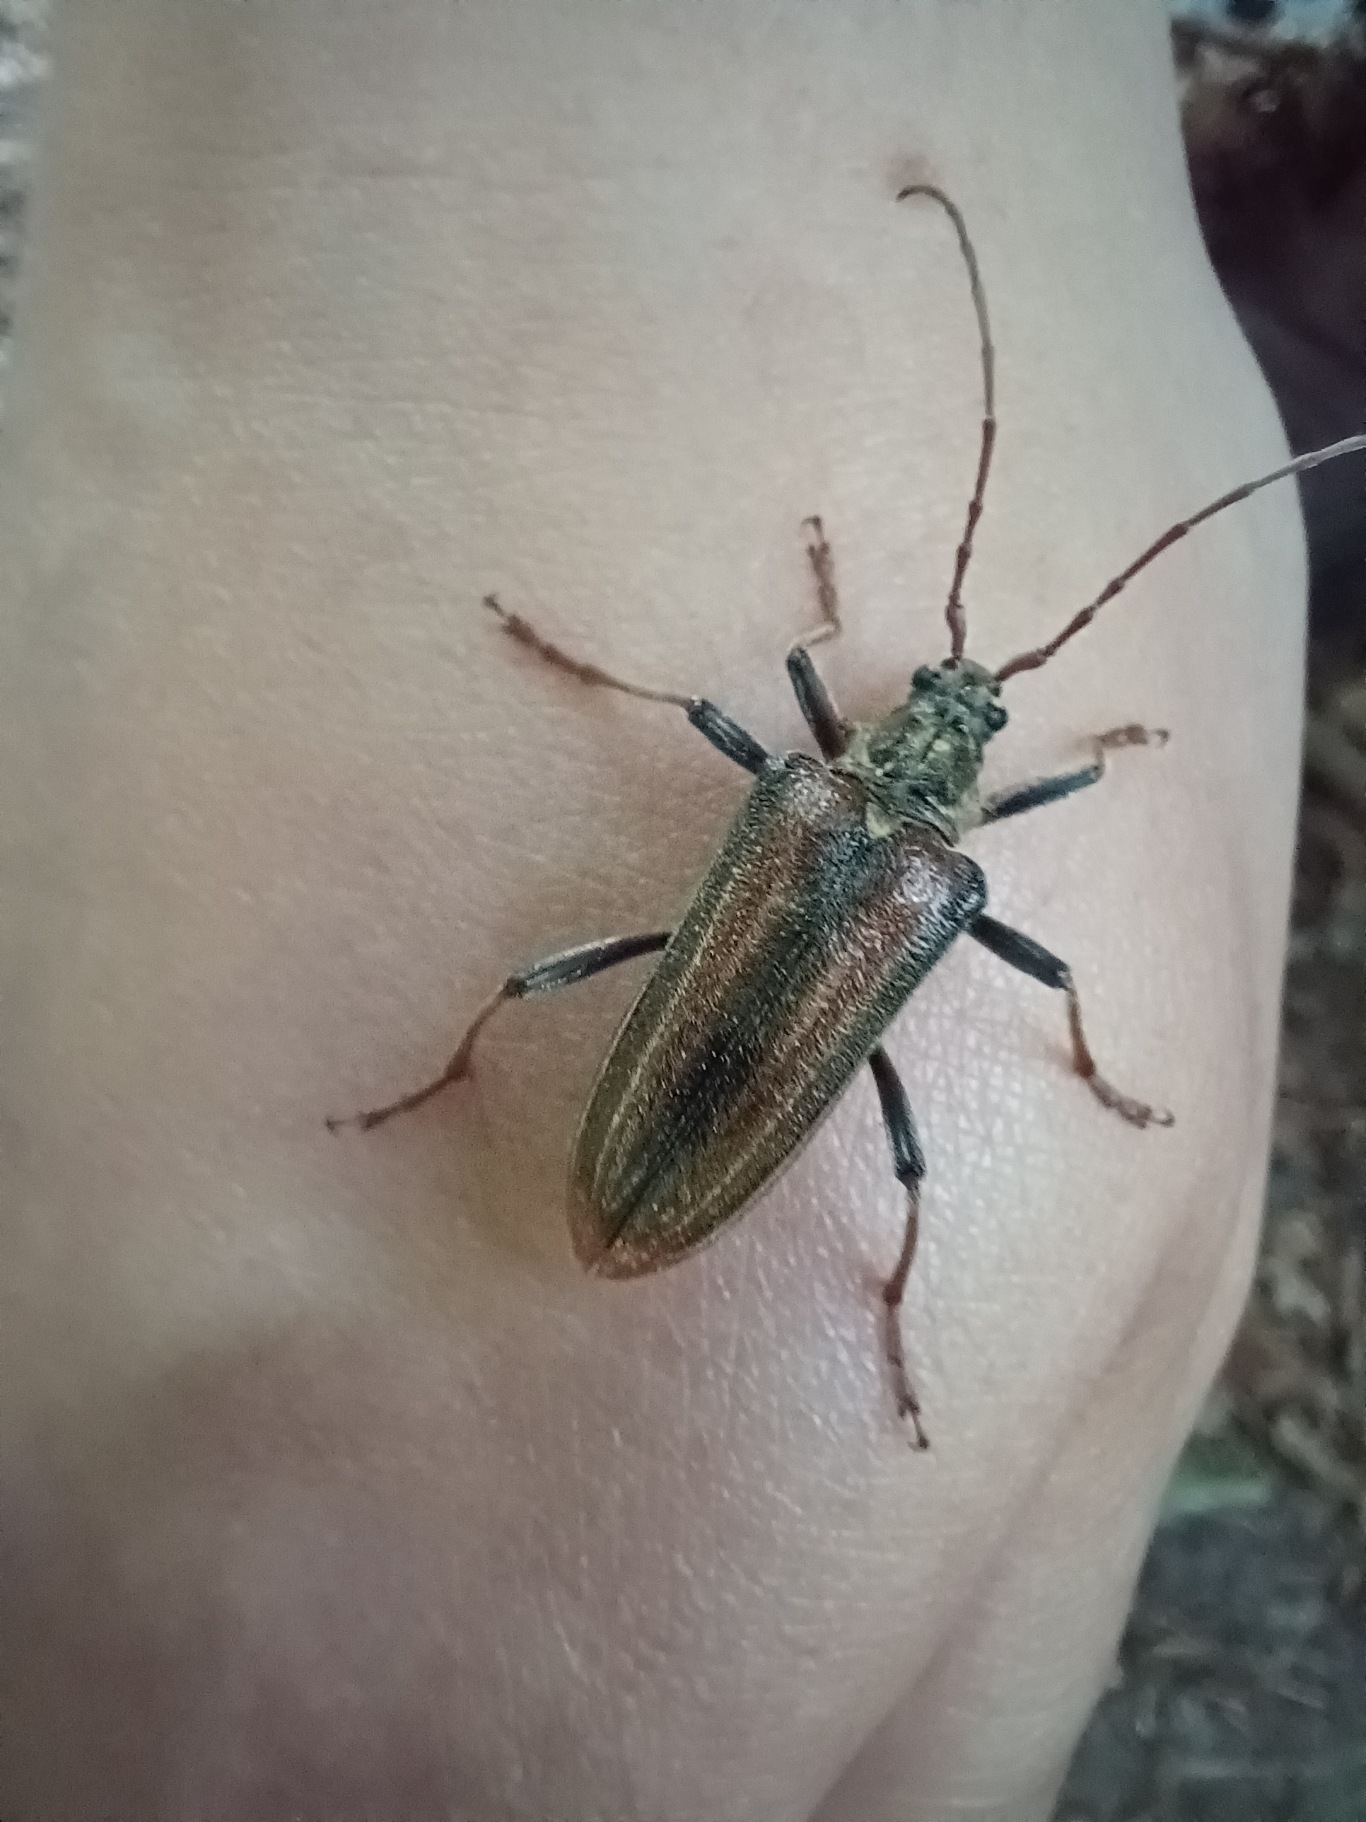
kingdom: Animalia
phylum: Arthropoda
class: Insecta
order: Coleoptera
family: Cerambycidae
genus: Oxymirus
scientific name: Oxymirus cursor
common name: Forskelligfarvet hækkebuk
